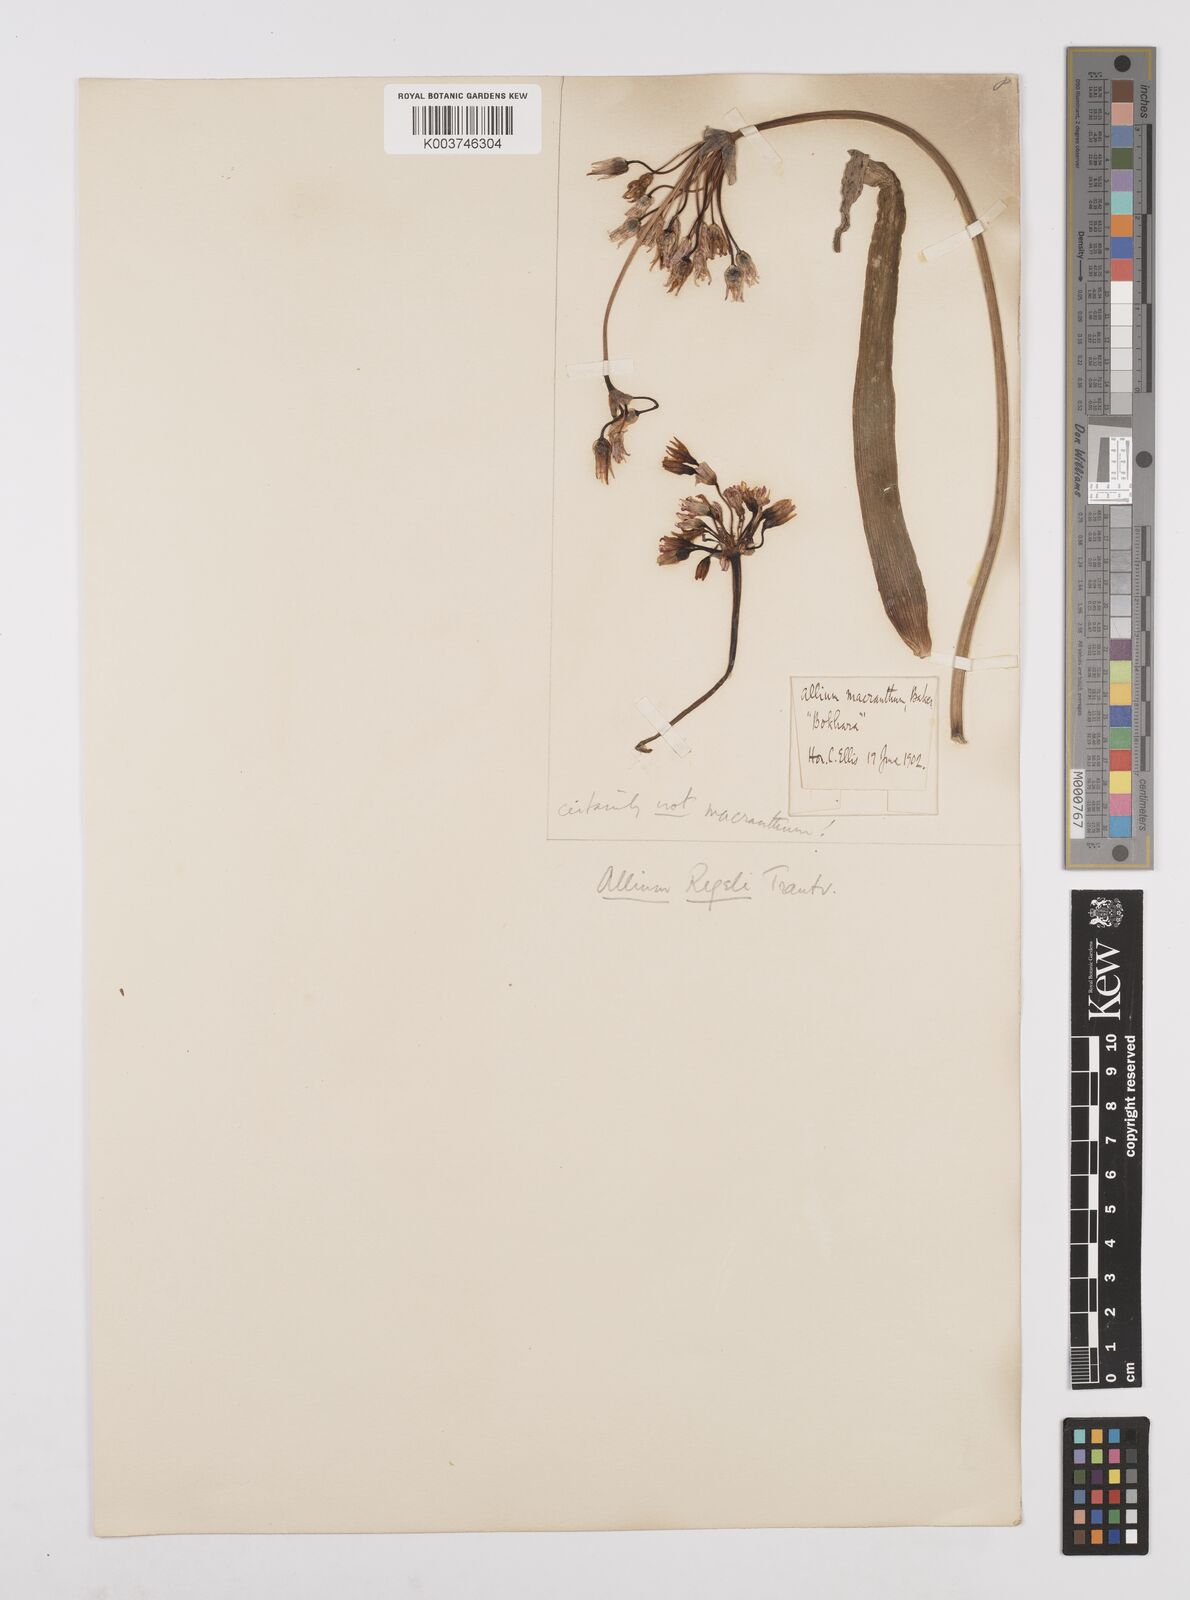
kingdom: Plantae
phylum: Tracheophyta
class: Liliopsida
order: Asparagales
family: Amaryllidaceae
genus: Allium
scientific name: Allium regelii
